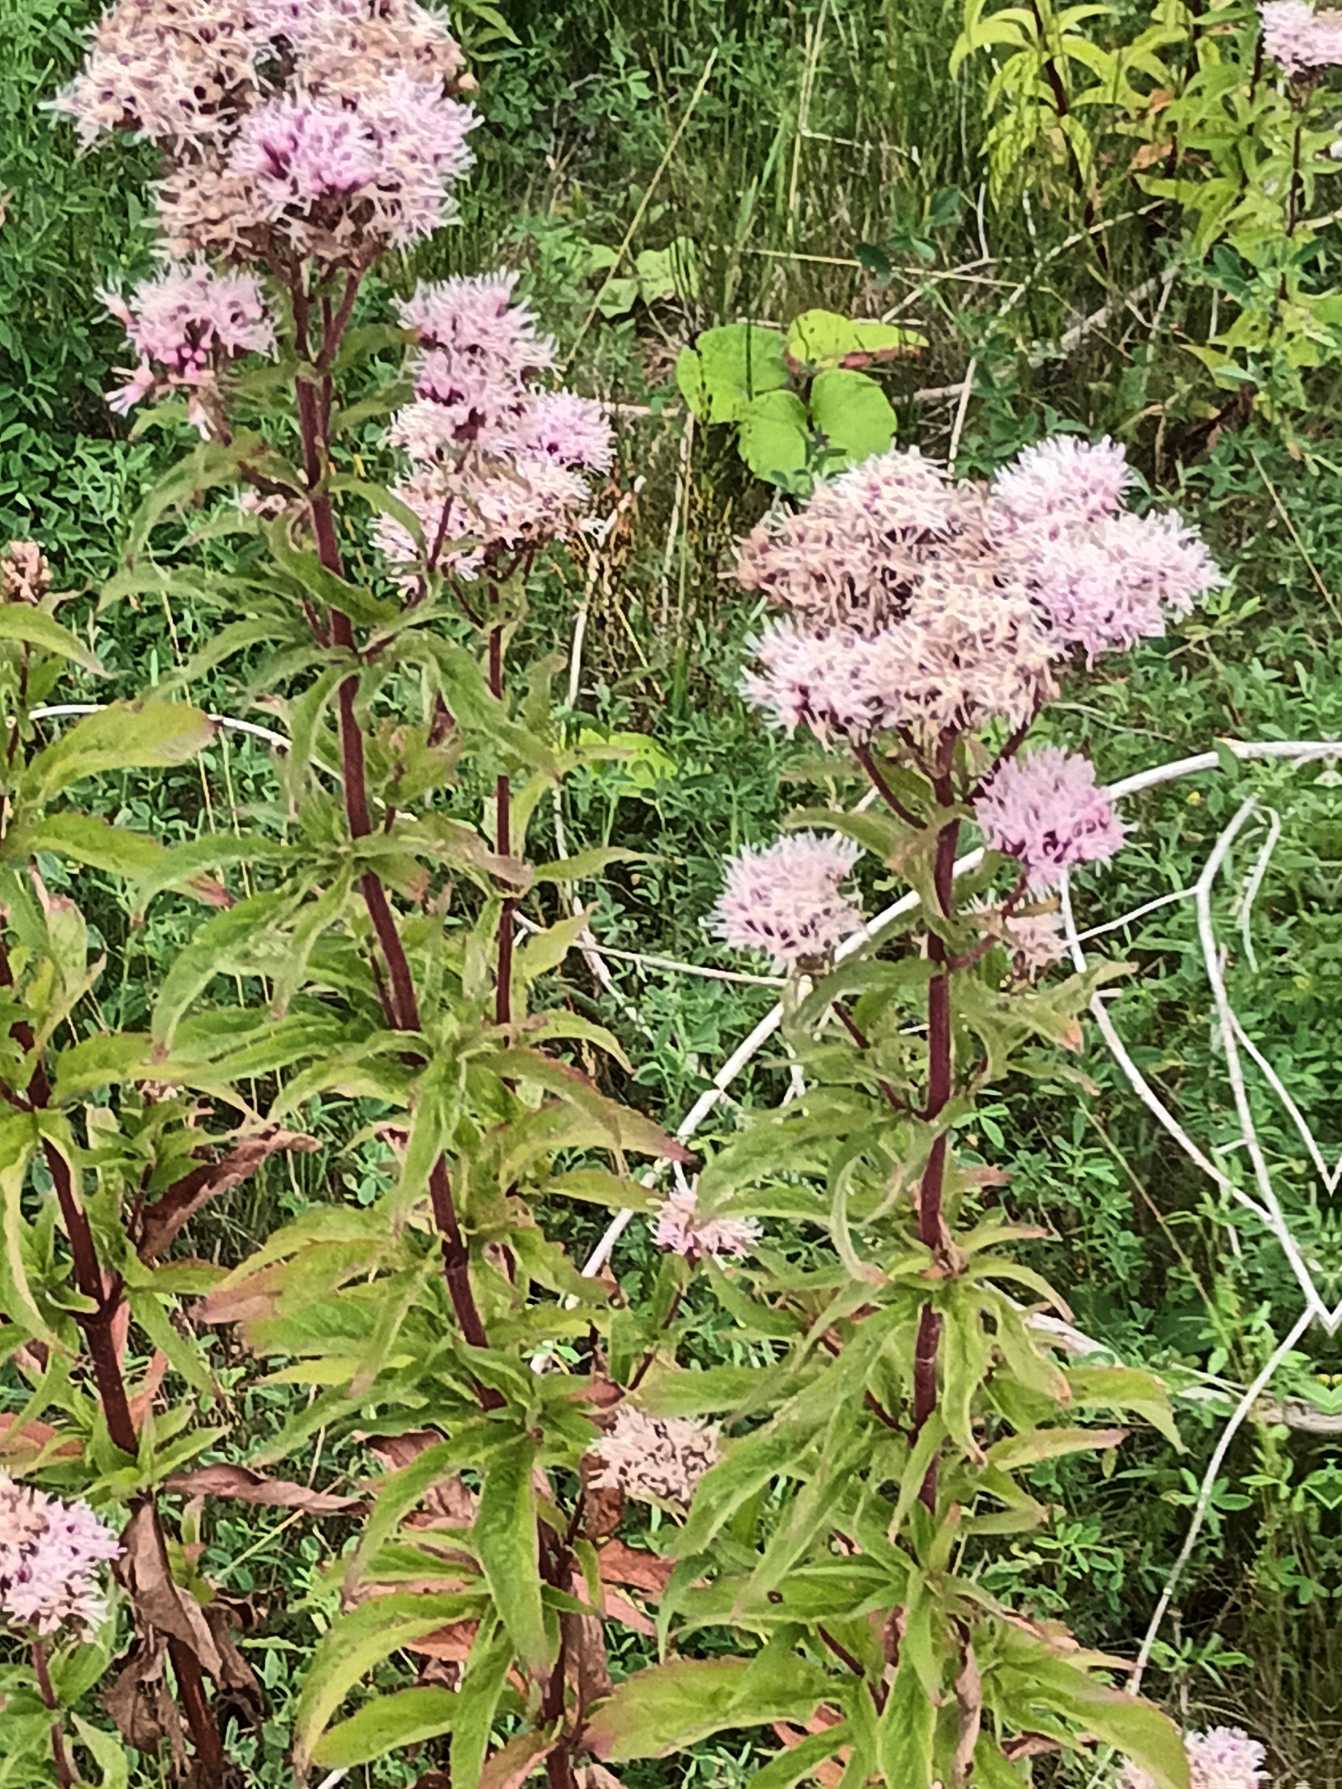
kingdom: Plantae
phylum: Tracheophyta
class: Magnoliopsida
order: Asterales
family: Asteraceae
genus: Eupatorium
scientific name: Eupatorium cannabinum
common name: Hjortetrøst
